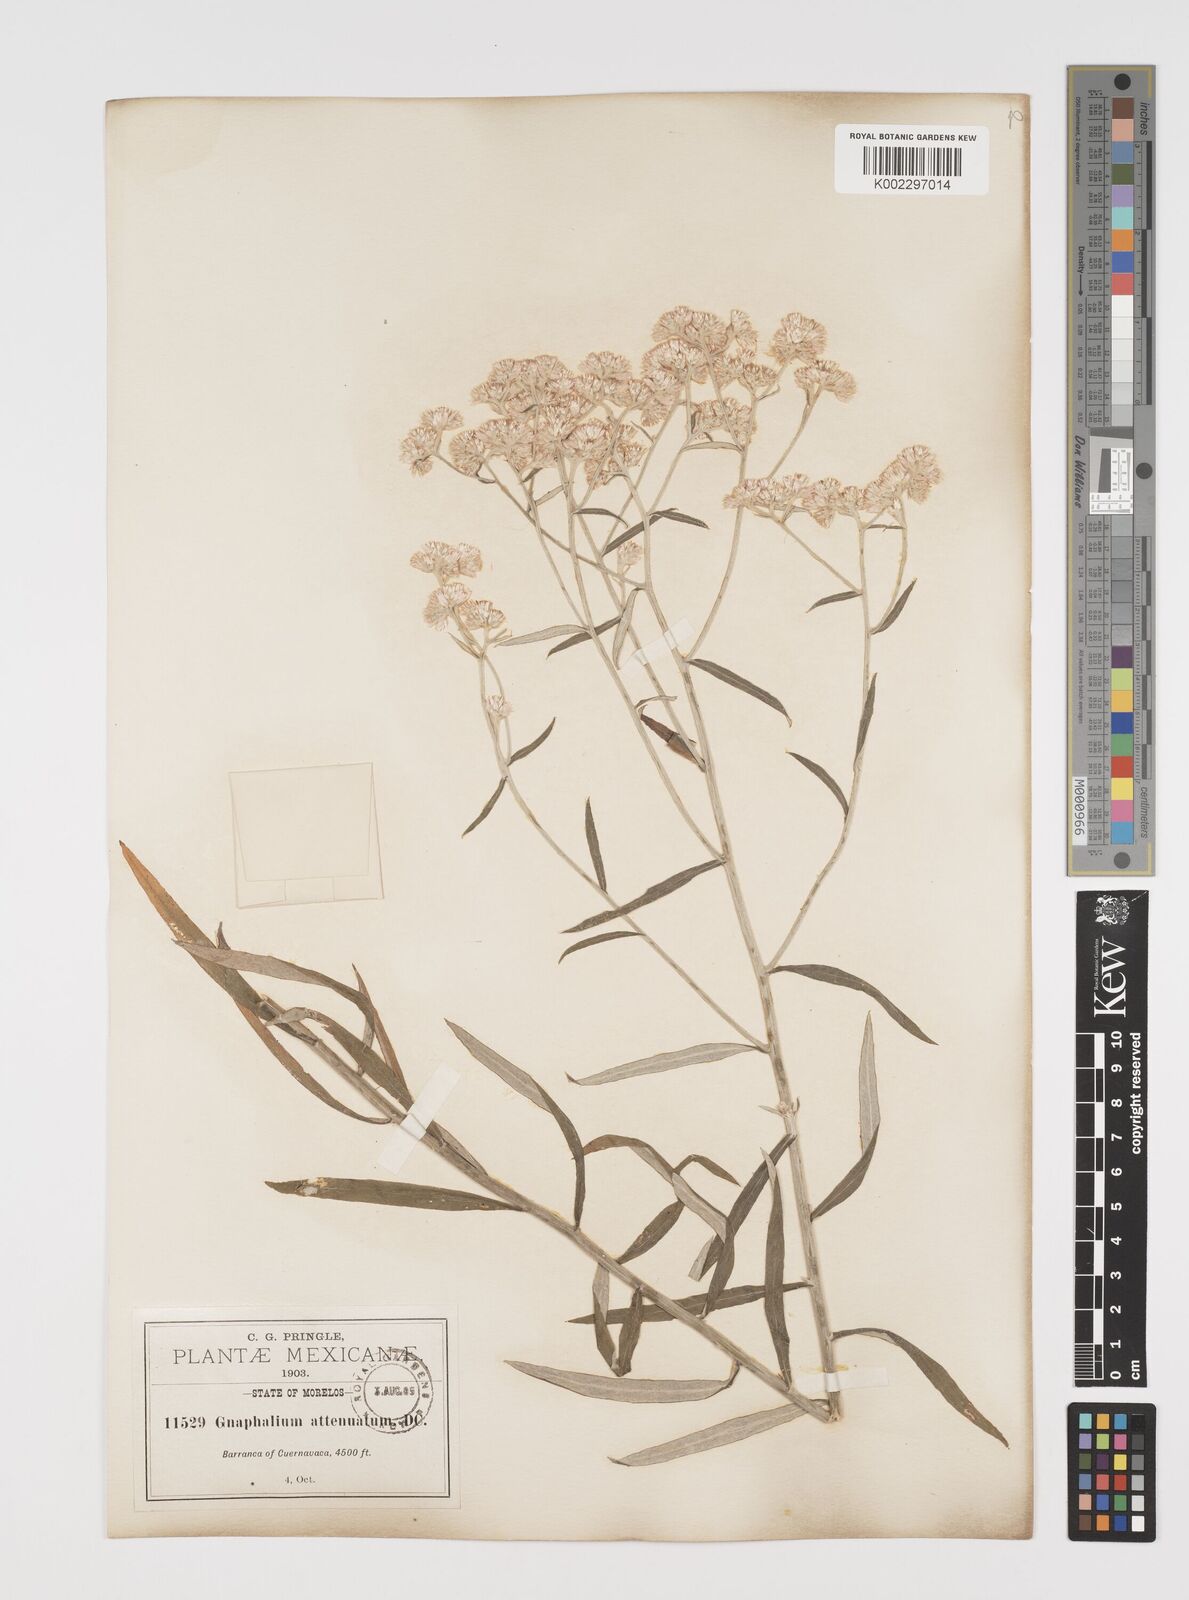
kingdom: Plantae
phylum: Tracheophyta
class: Magnoliopsida
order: Asterales
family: Asteraceae
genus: Pseudognaphalium
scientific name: Pseudognaphalium attenuatum
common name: Tapered cudweed
